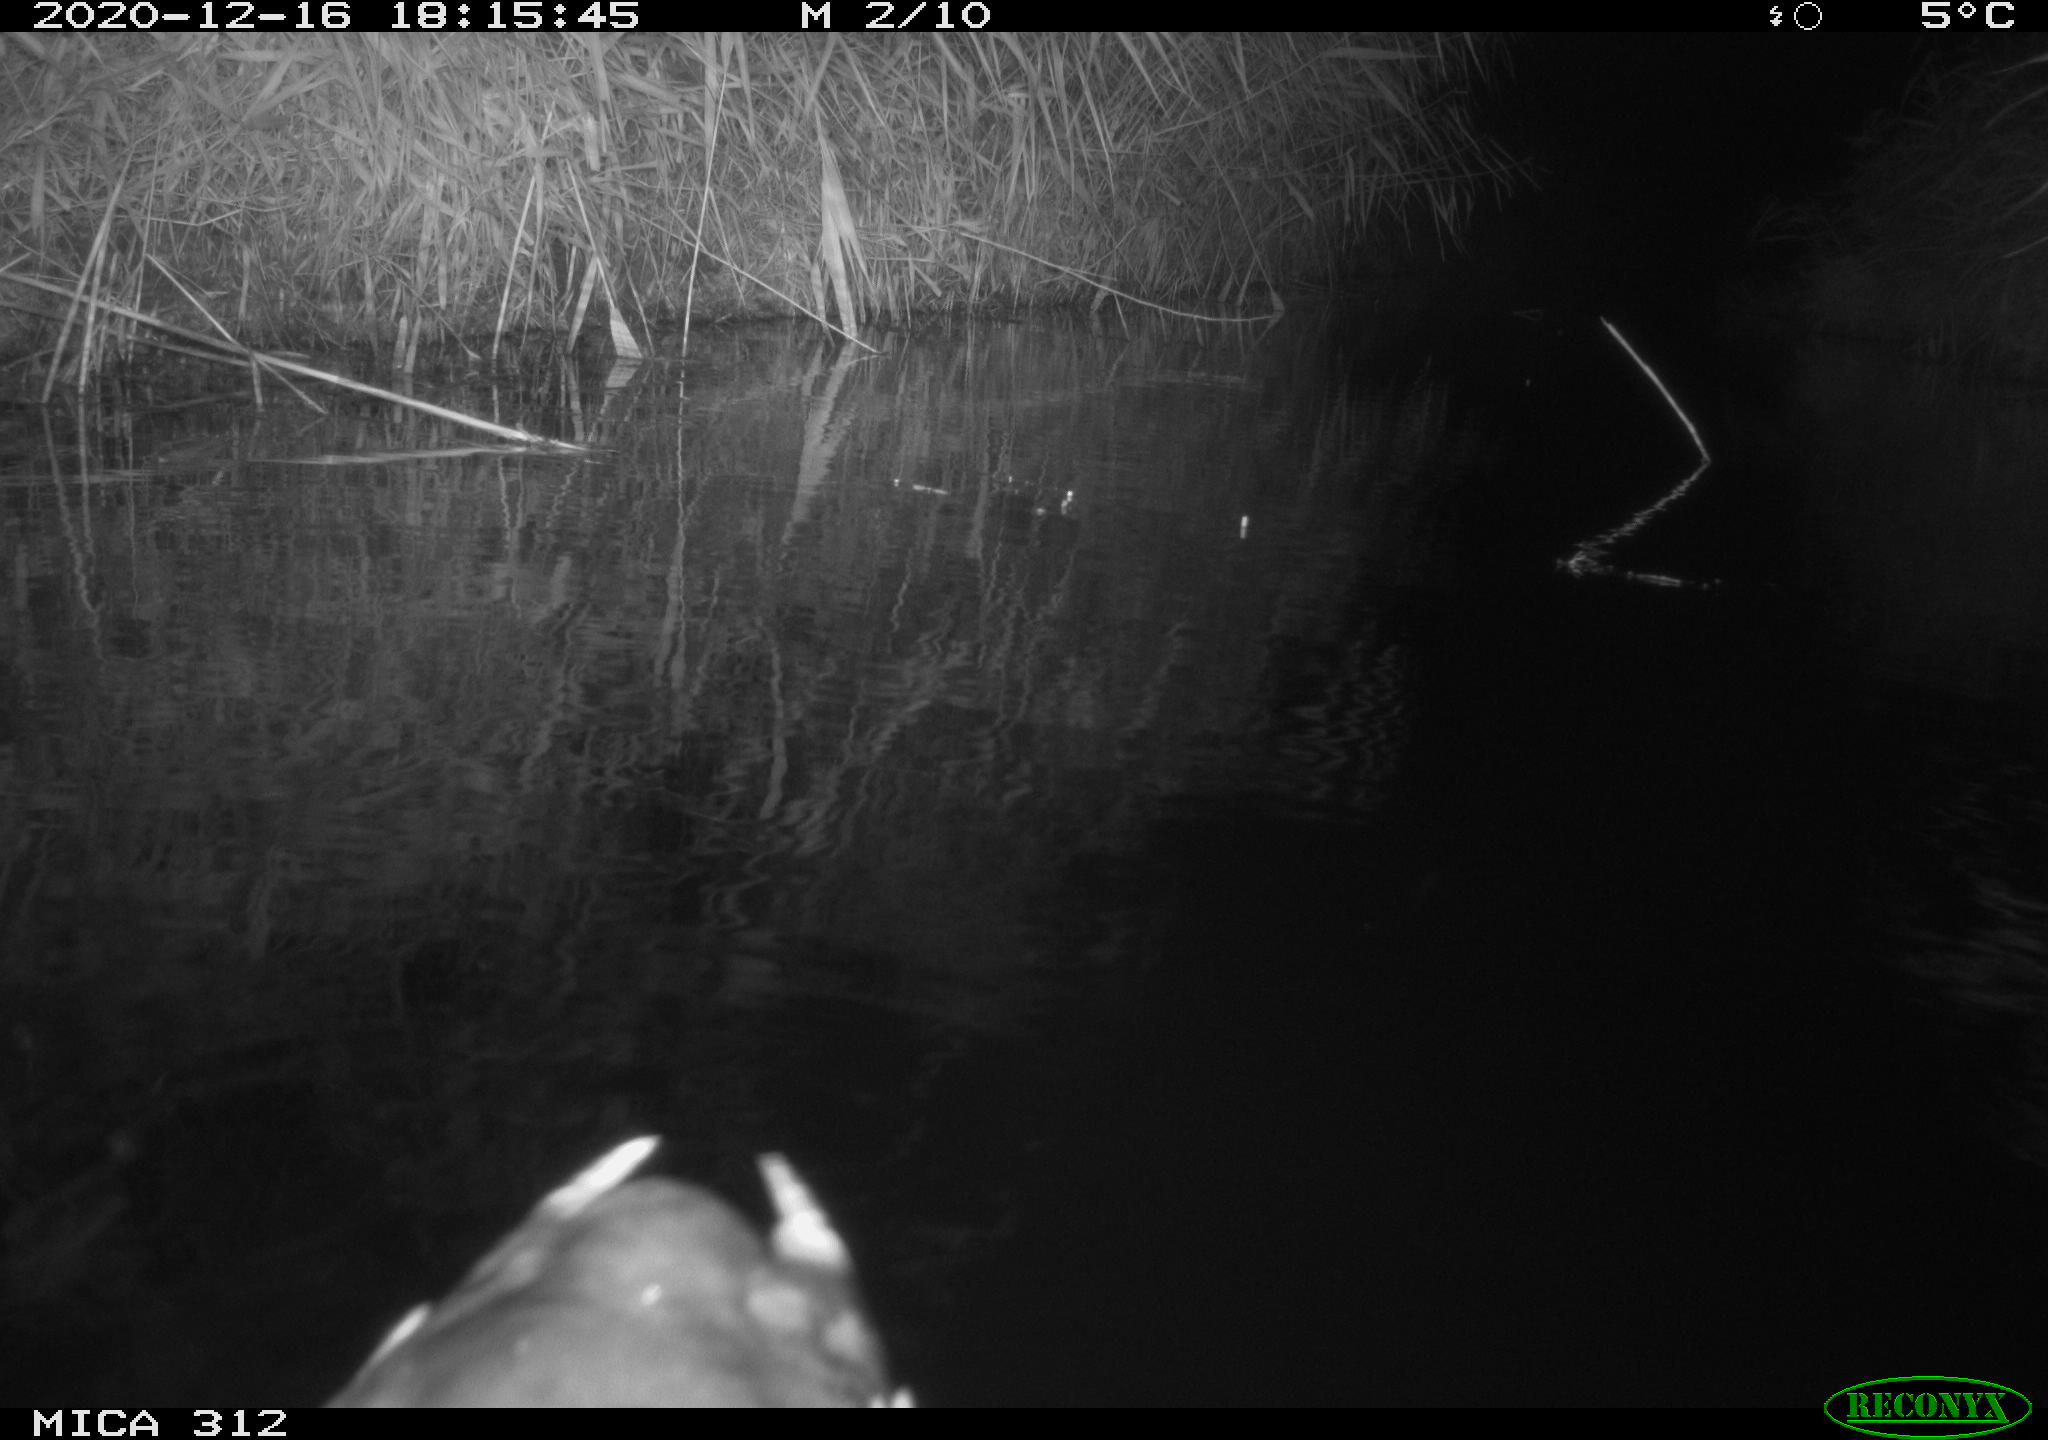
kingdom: Animalia
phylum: Chordata
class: Aves
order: Gruiformes
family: Rallidae
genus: Gallinula
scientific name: Gallinula chloropus
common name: Common moorhen
